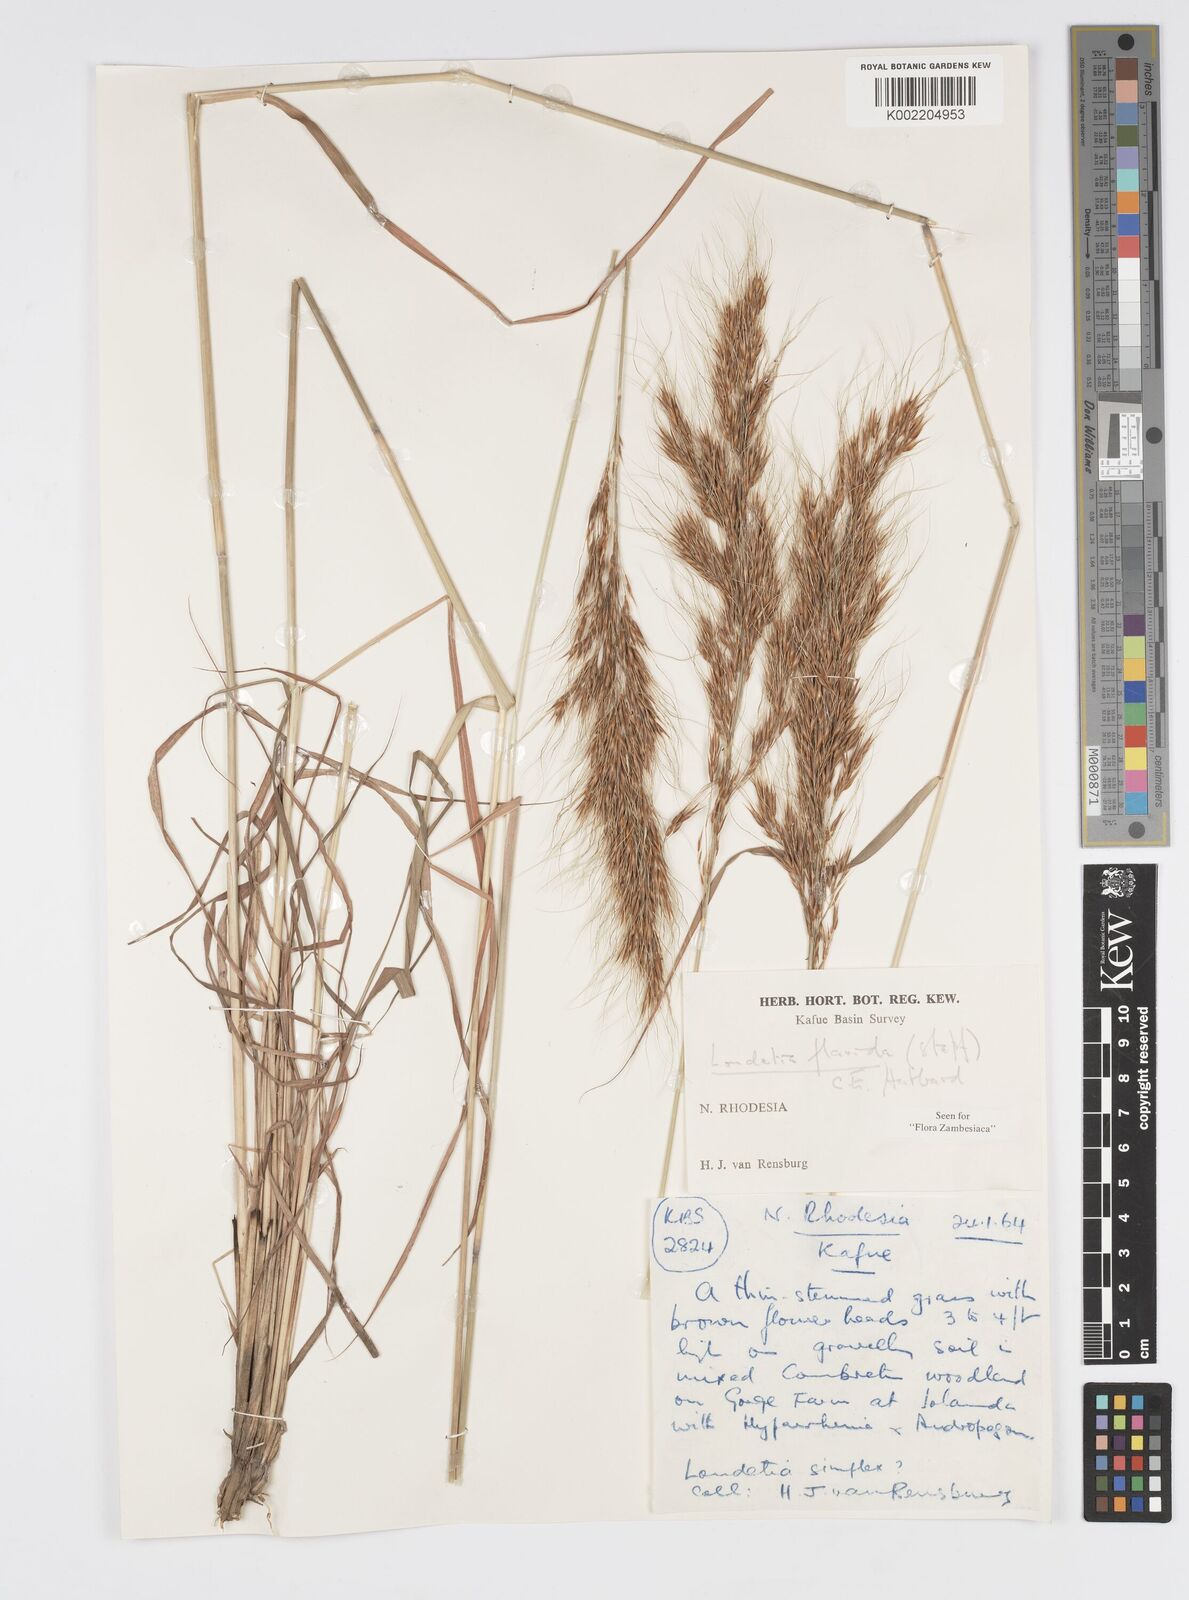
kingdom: Plantae
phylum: Tracheophyta
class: Liliopsida
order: Poales
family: Poaceae
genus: Loudetia
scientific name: Loudetia flavida
